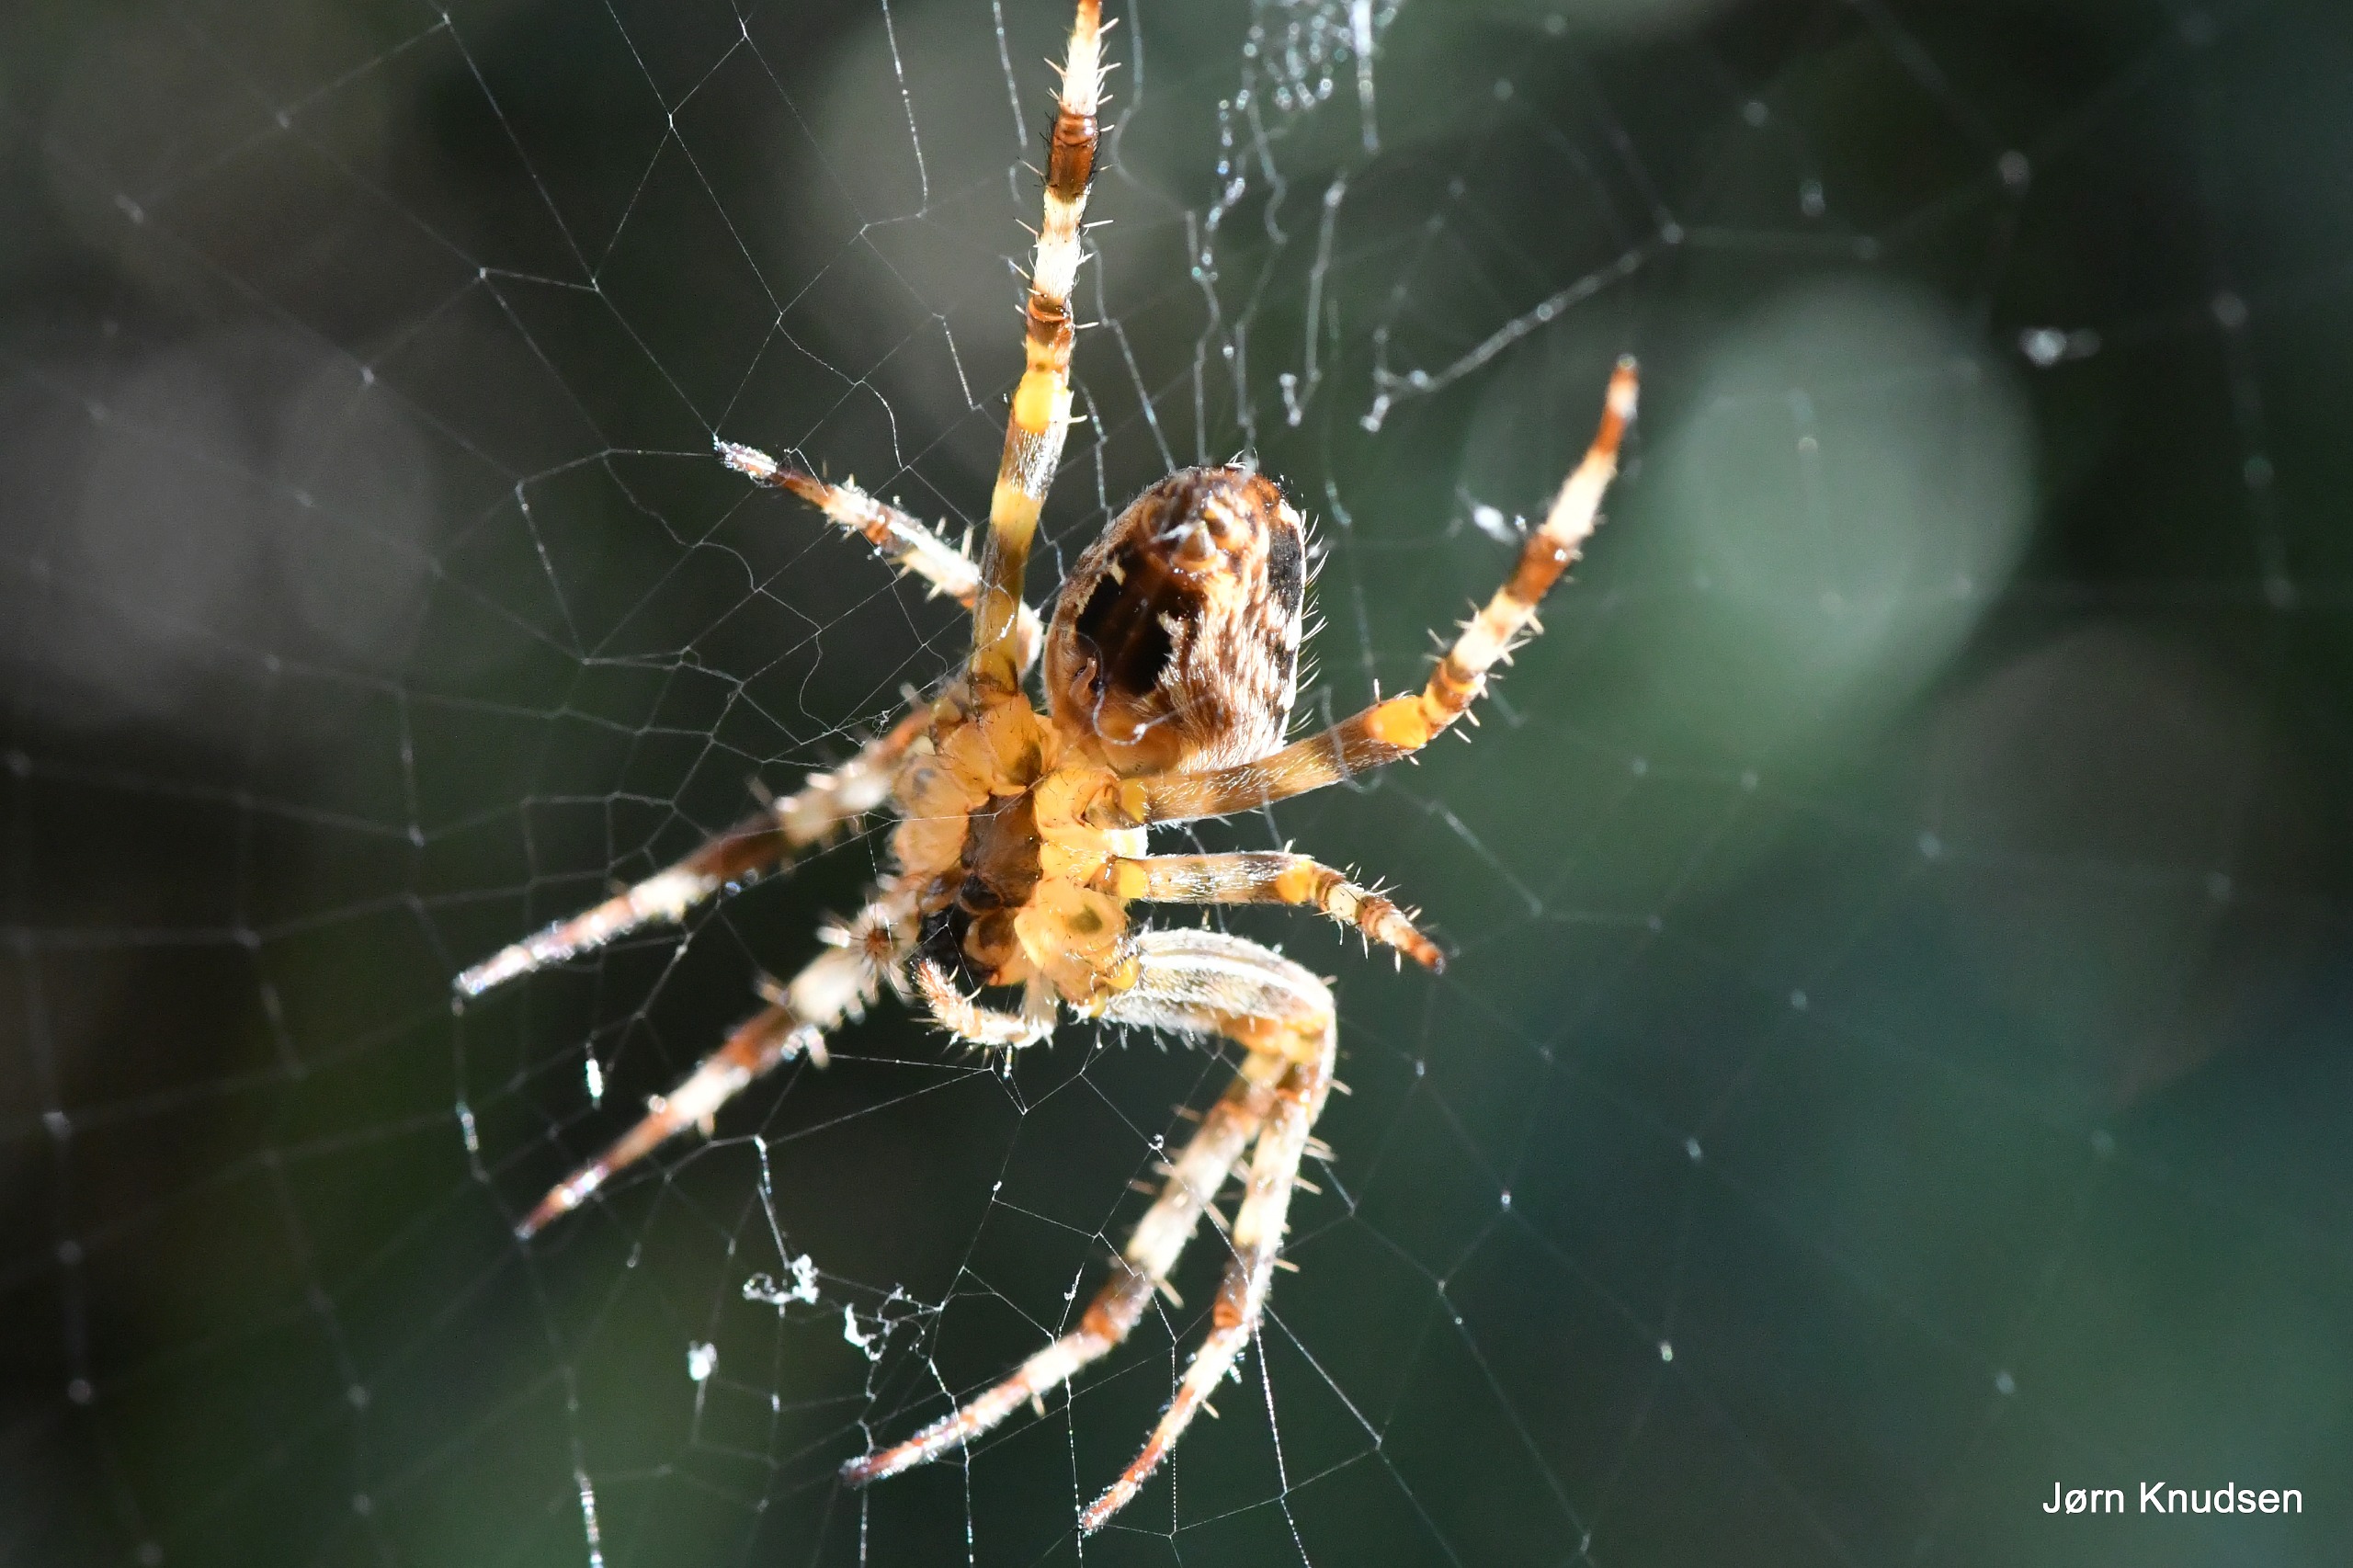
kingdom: Animalia
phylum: Arthropoda
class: Arachnida
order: Araneae
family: Araneidae
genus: Araneus
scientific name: Araneus diadematus
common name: Korsedderkop
